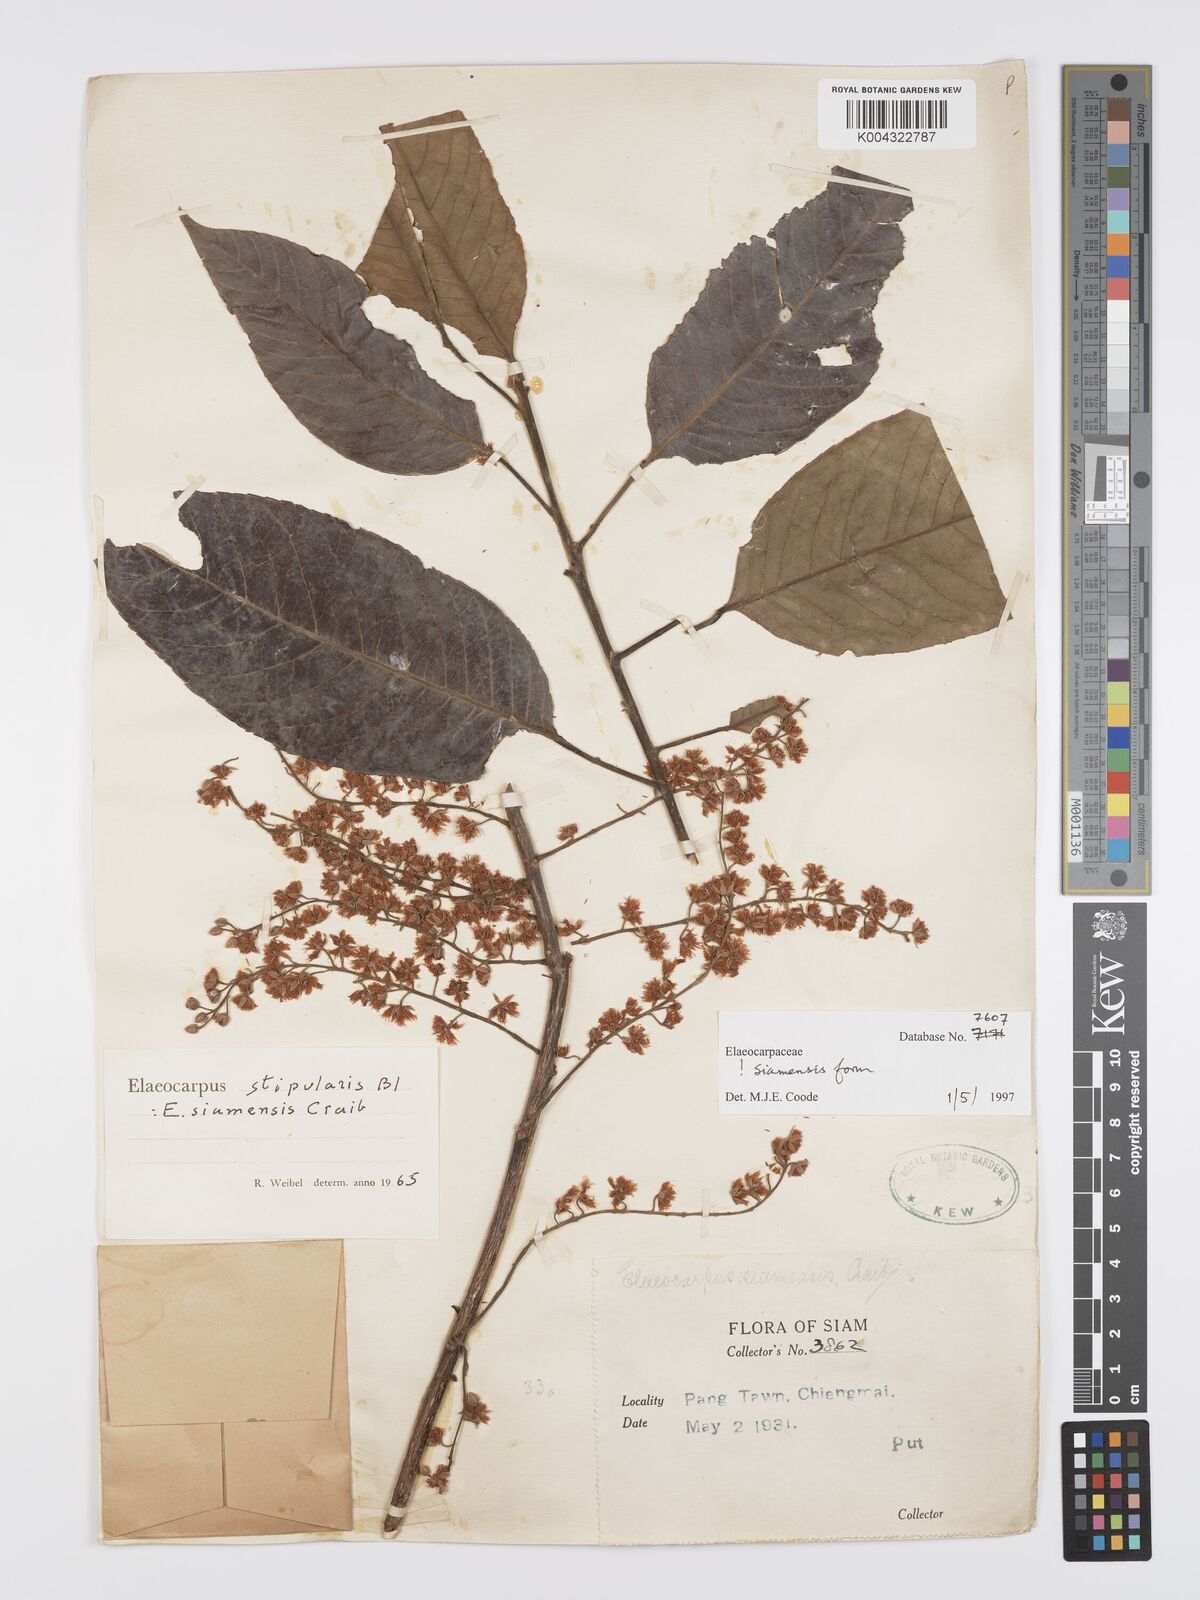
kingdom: Plantae
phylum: Tracheophyta
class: Magnoliopsida
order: Oxalidales
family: Elaeocarpaceae
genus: Elaeocarpus
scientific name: Elaeocarpus stipularis
